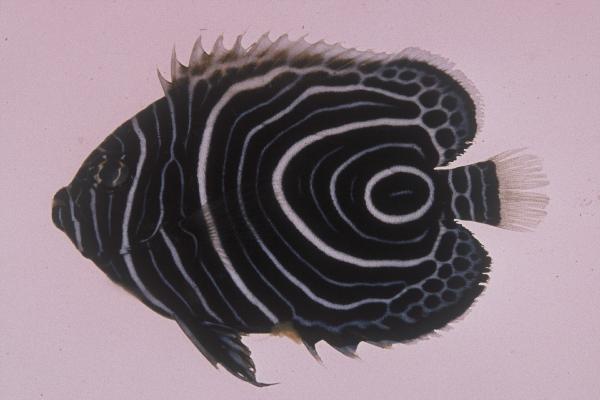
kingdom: Animalia
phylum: Chordata
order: Perciformes
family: Pomacanthidae
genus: Pomacanthus
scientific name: Pomacanthus imperator
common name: Emperor angelfish
